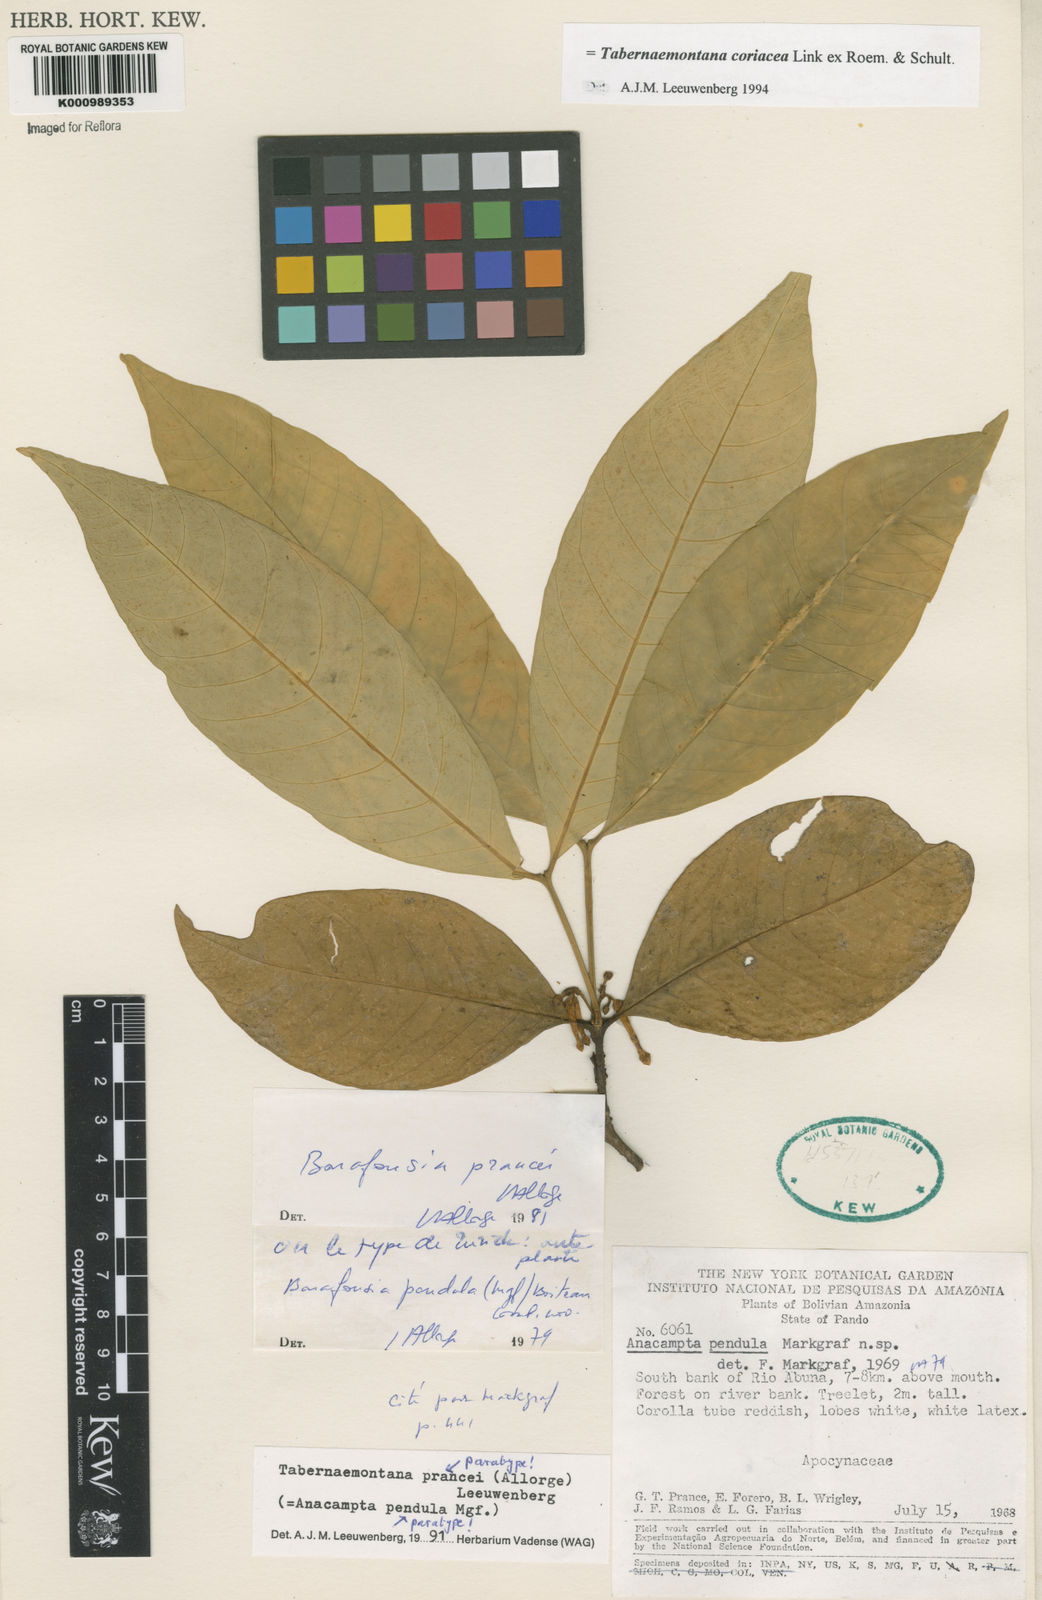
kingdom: Plantae
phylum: Tracheophyta
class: Magnoliopsida
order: Gentianales
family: Apocynaceae
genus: Tabernaemontana
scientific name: Tabernaemontana coriacea
